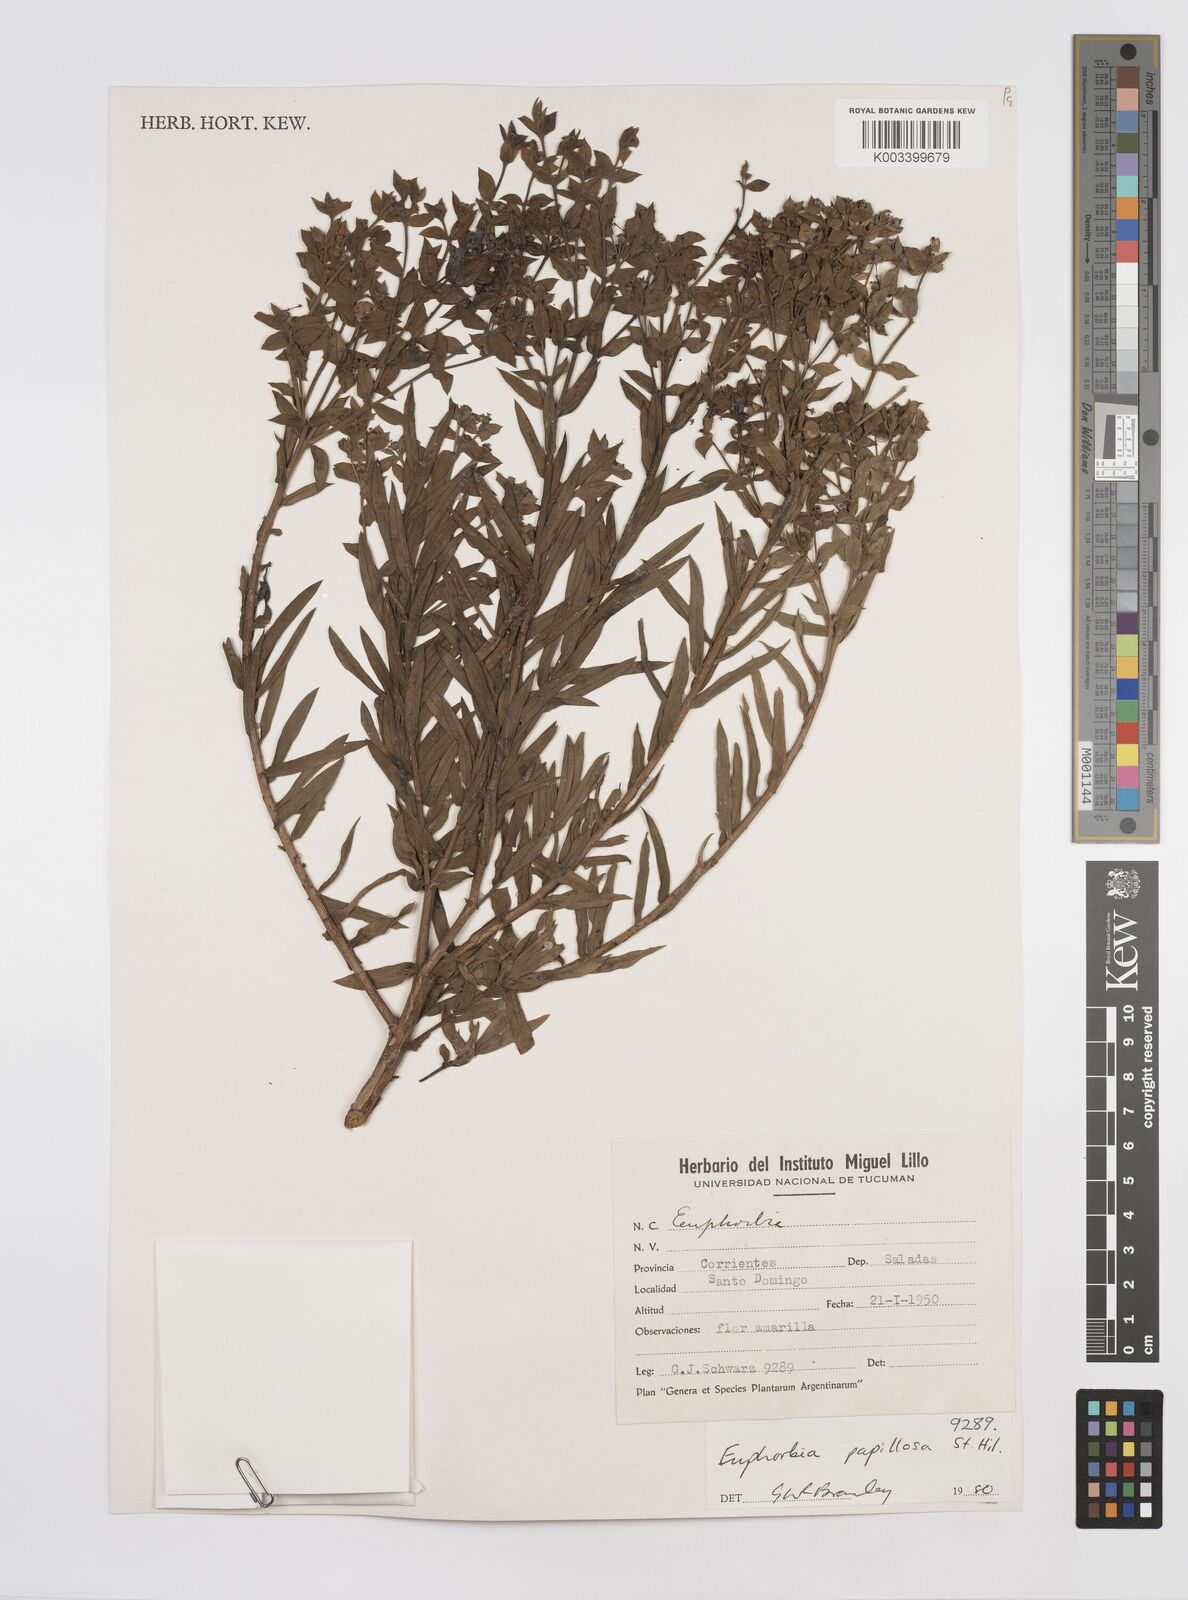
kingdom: Plantae
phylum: Tracheophyta
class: Magnoliopsida
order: Malpighiales
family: Euphorbiaceae
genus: Euphorbia
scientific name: Euphorbia
